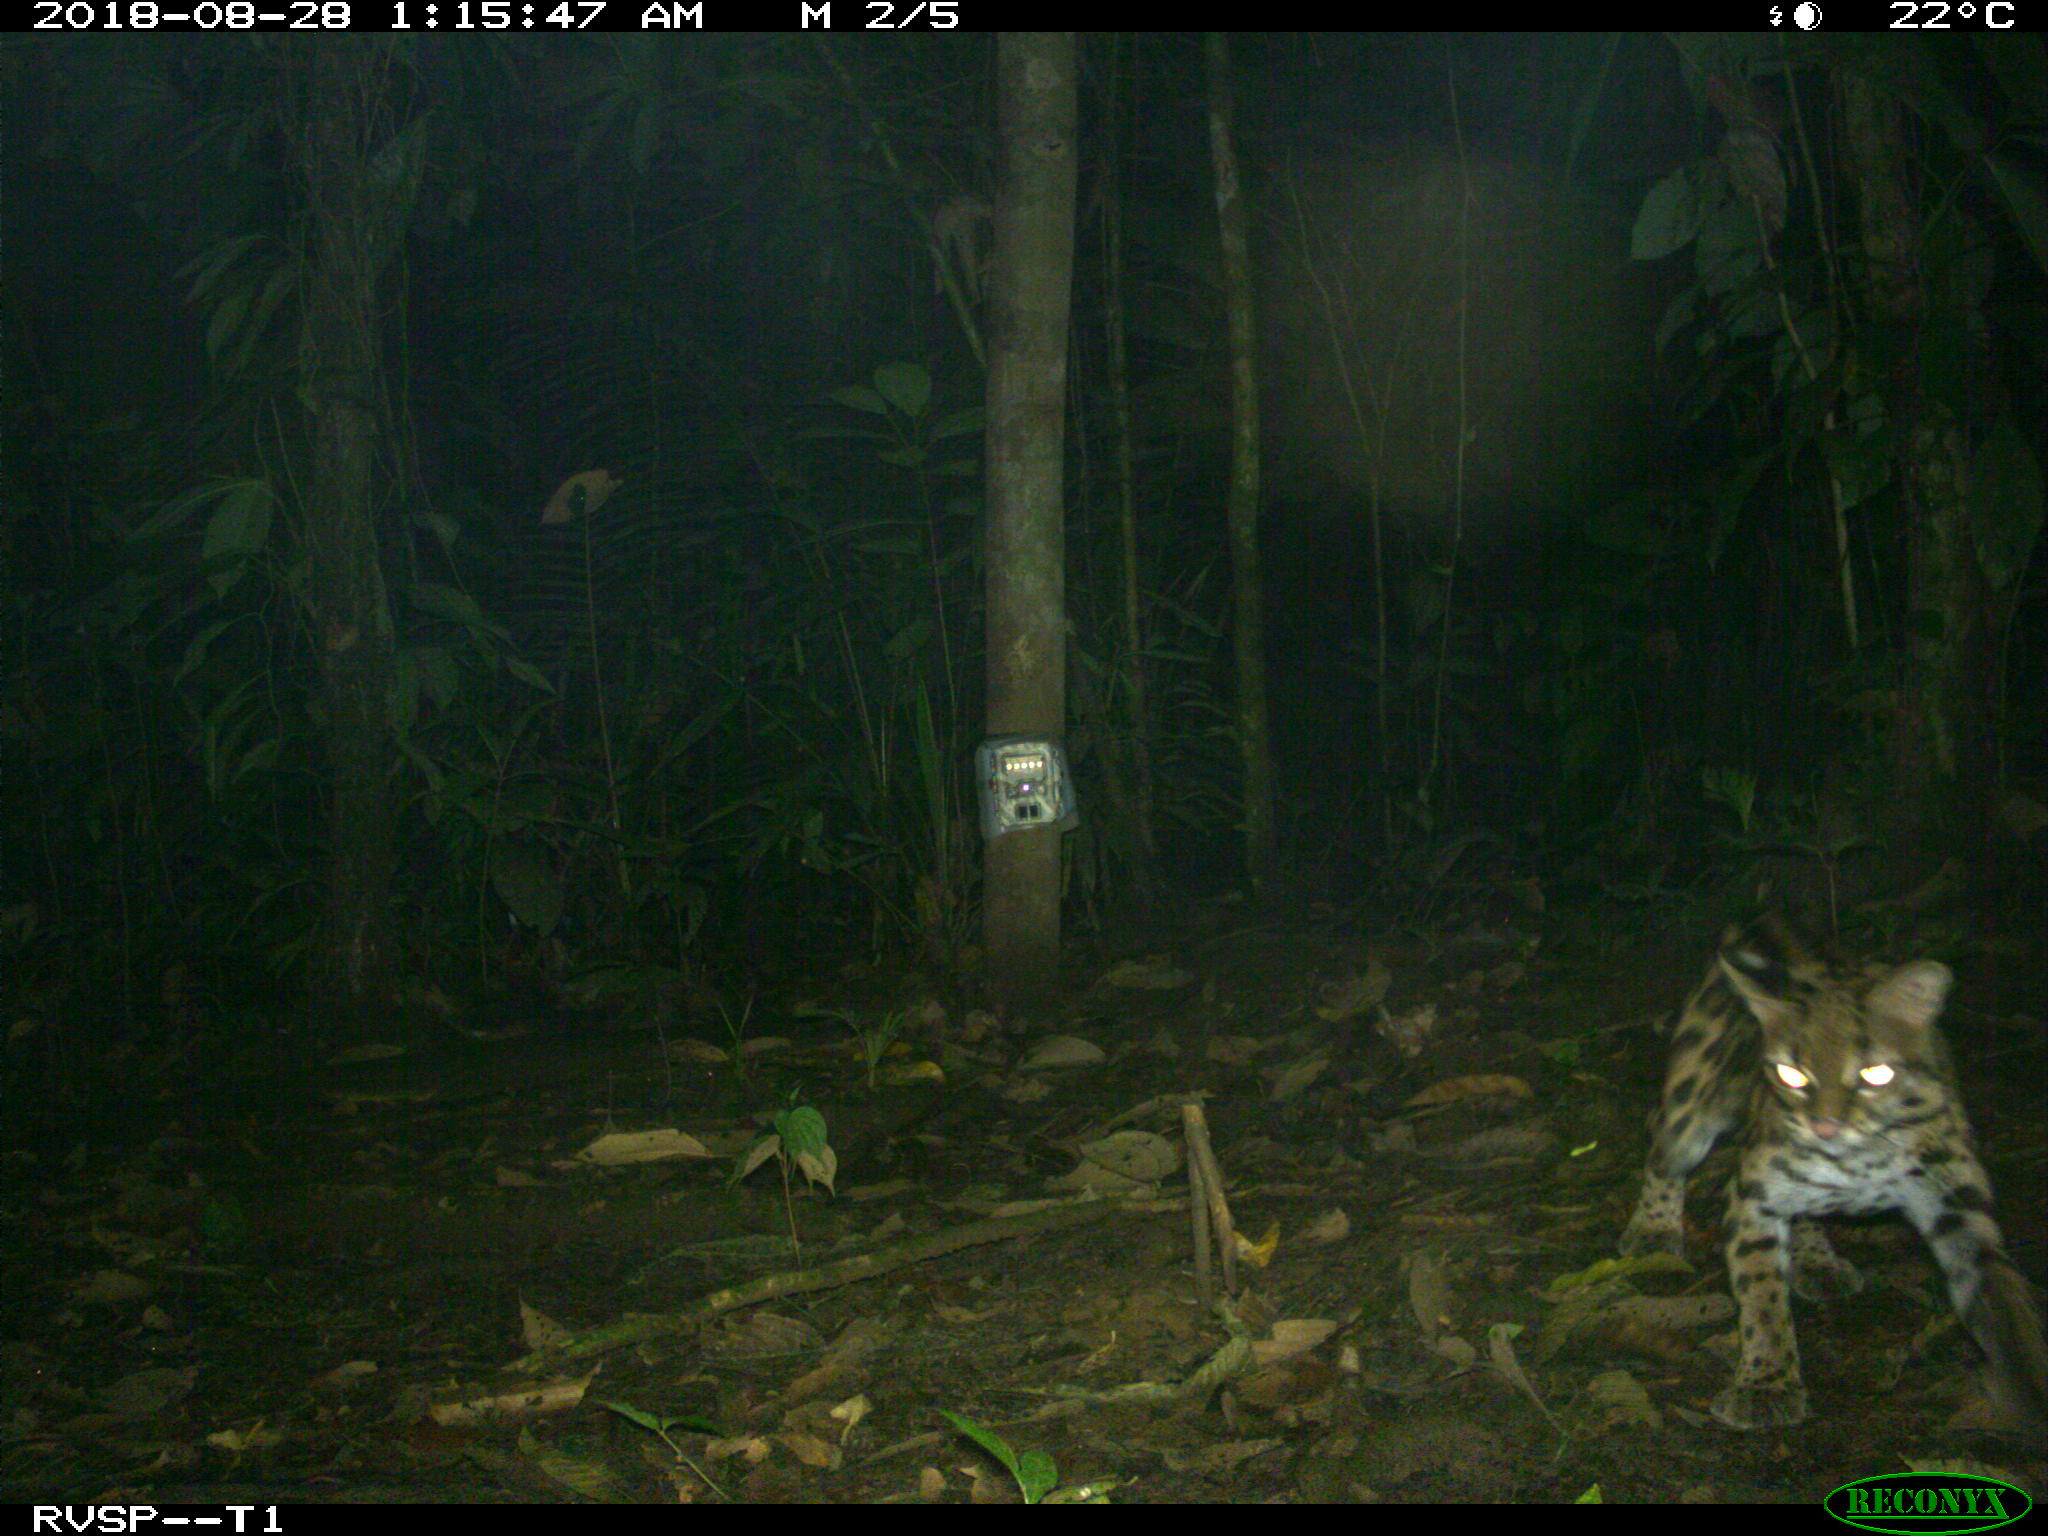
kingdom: Animalia
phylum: Chordata
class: Mammalia
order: Carnivora
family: Felidae
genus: Leopardus
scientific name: Leopardus pardalis
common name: Ocelot
